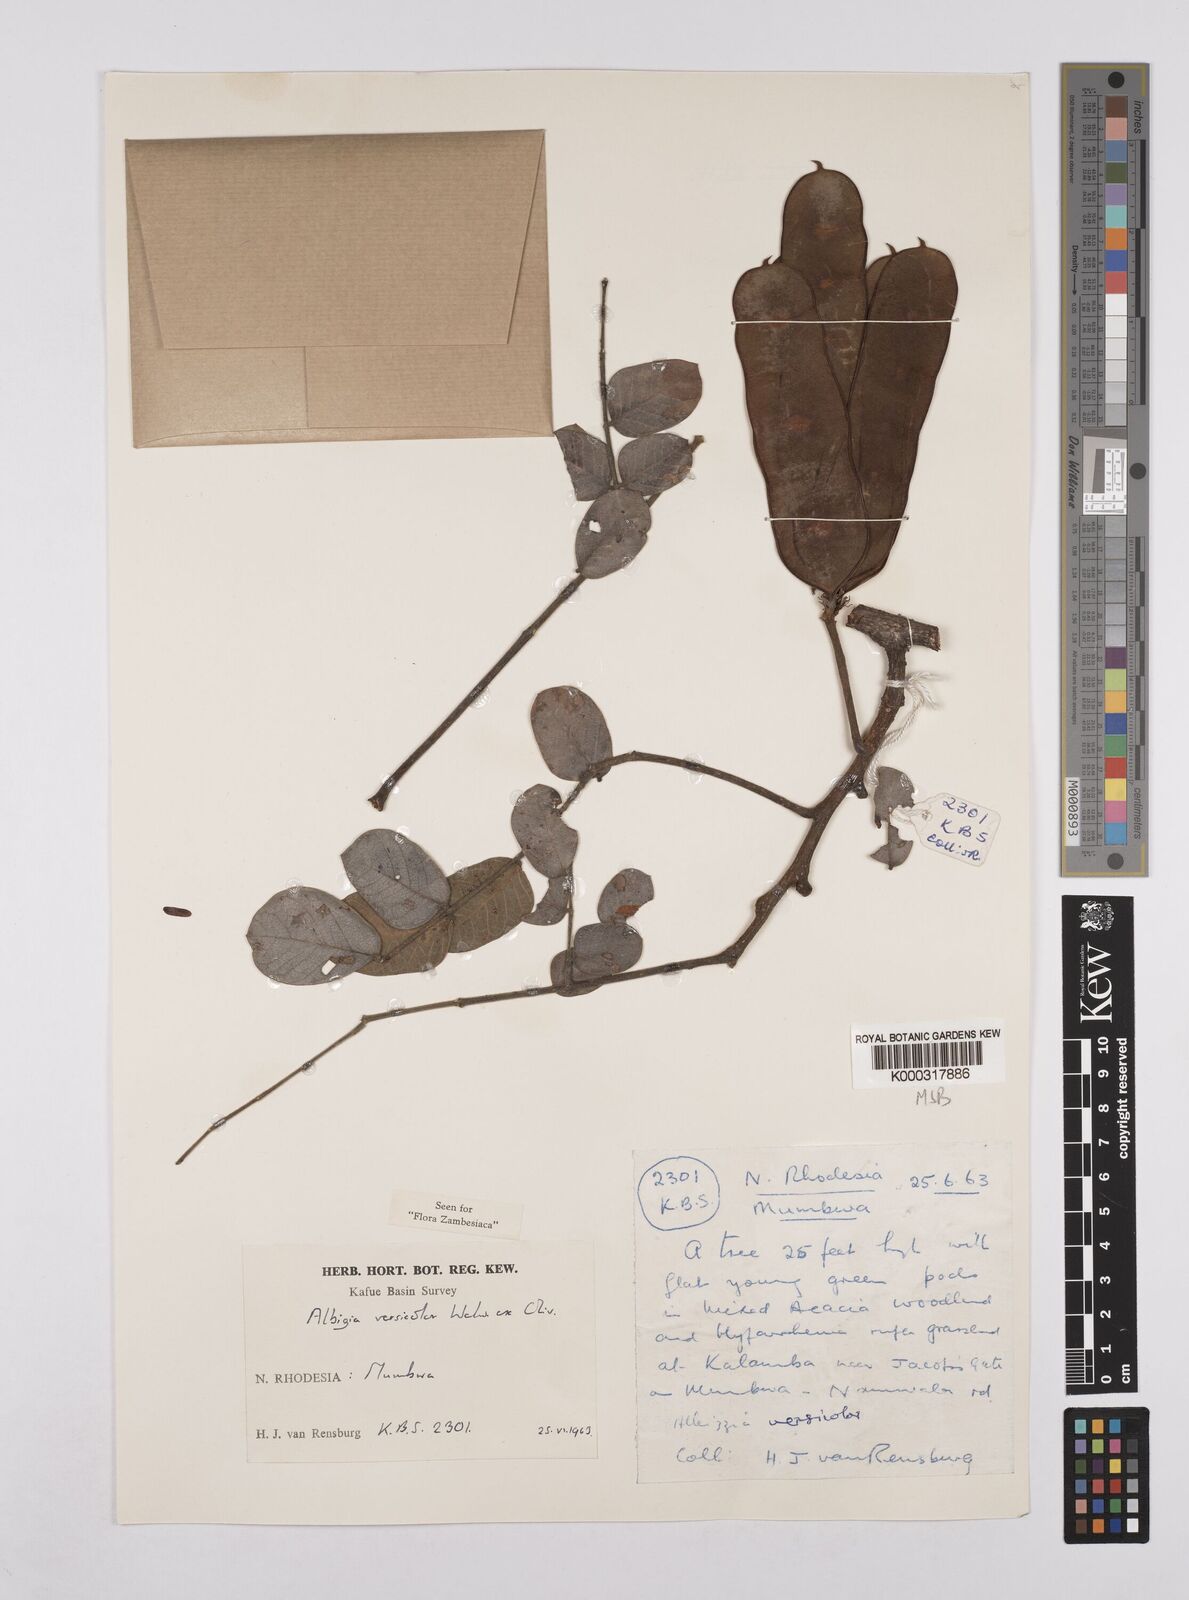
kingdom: Plantae
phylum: Tracheophyta
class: Magnoliopsida
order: Fabales
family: Fabaceae
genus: Albizia
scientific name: Albizia versicolor
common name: Poisonpod
